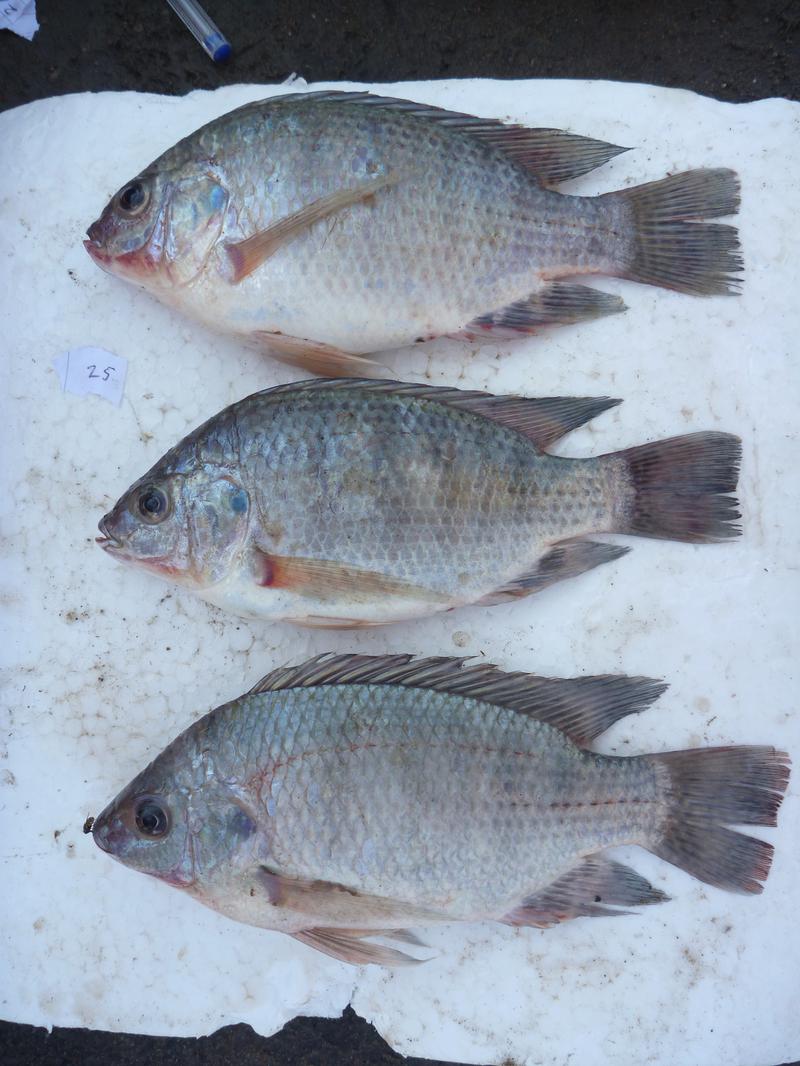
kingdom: Animalia
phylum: Chordata
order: Perciformes
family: Cichlidae
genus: Oreochromis
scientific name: Oreochromis rukwaensis
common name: Lake rukwa tilapia
